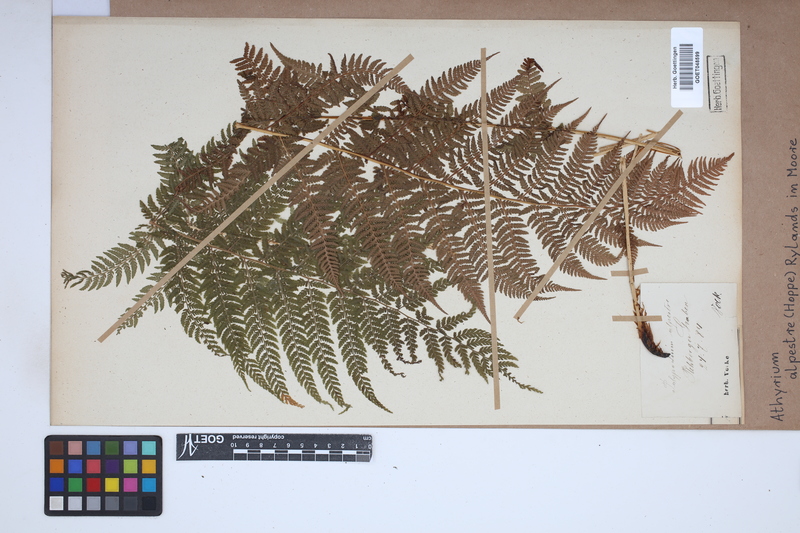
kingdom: Plantae
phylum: Tracheophyta
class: Polypodiopsida
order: Polypodiales
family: Athyriaceae
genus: Pseudathyrium
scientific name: Pseudathyrium alpestre
